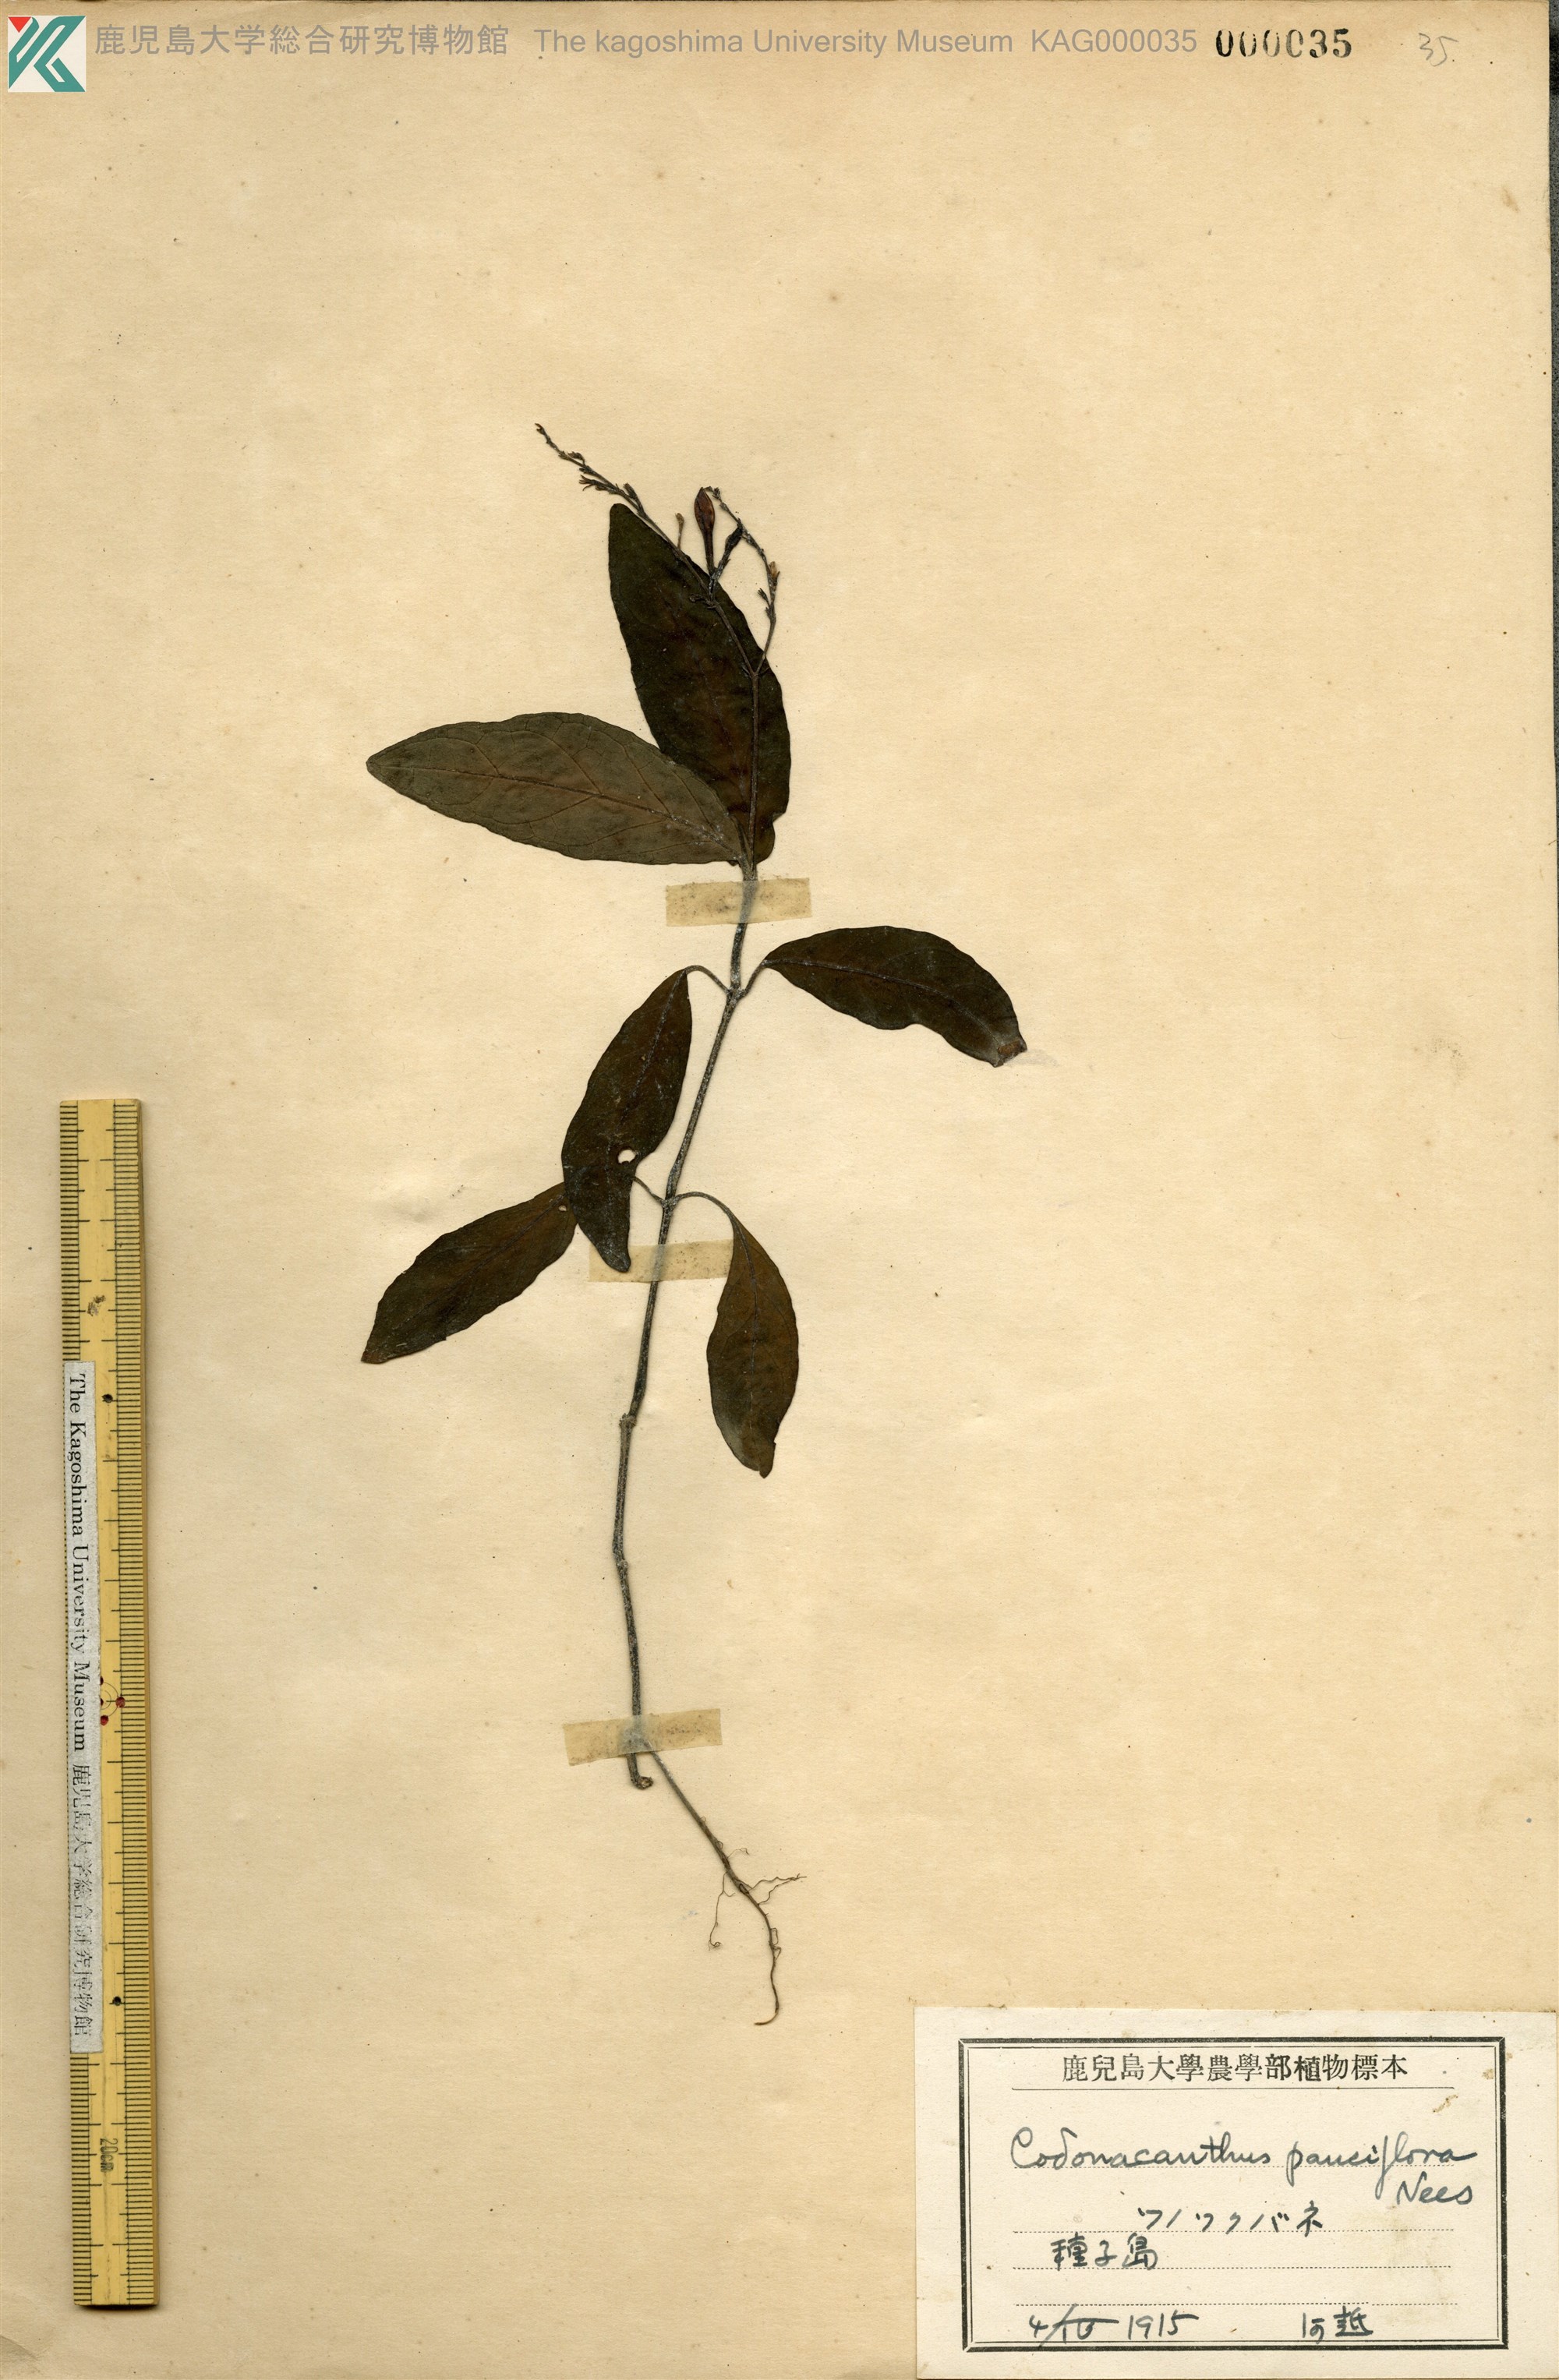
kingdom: Plantae
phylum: Tracheophyta
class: Magnoliopsida
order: Lamiales
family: Acanthaceae
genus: Codonacanthus
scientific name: Codonacanthus pauciflorus
